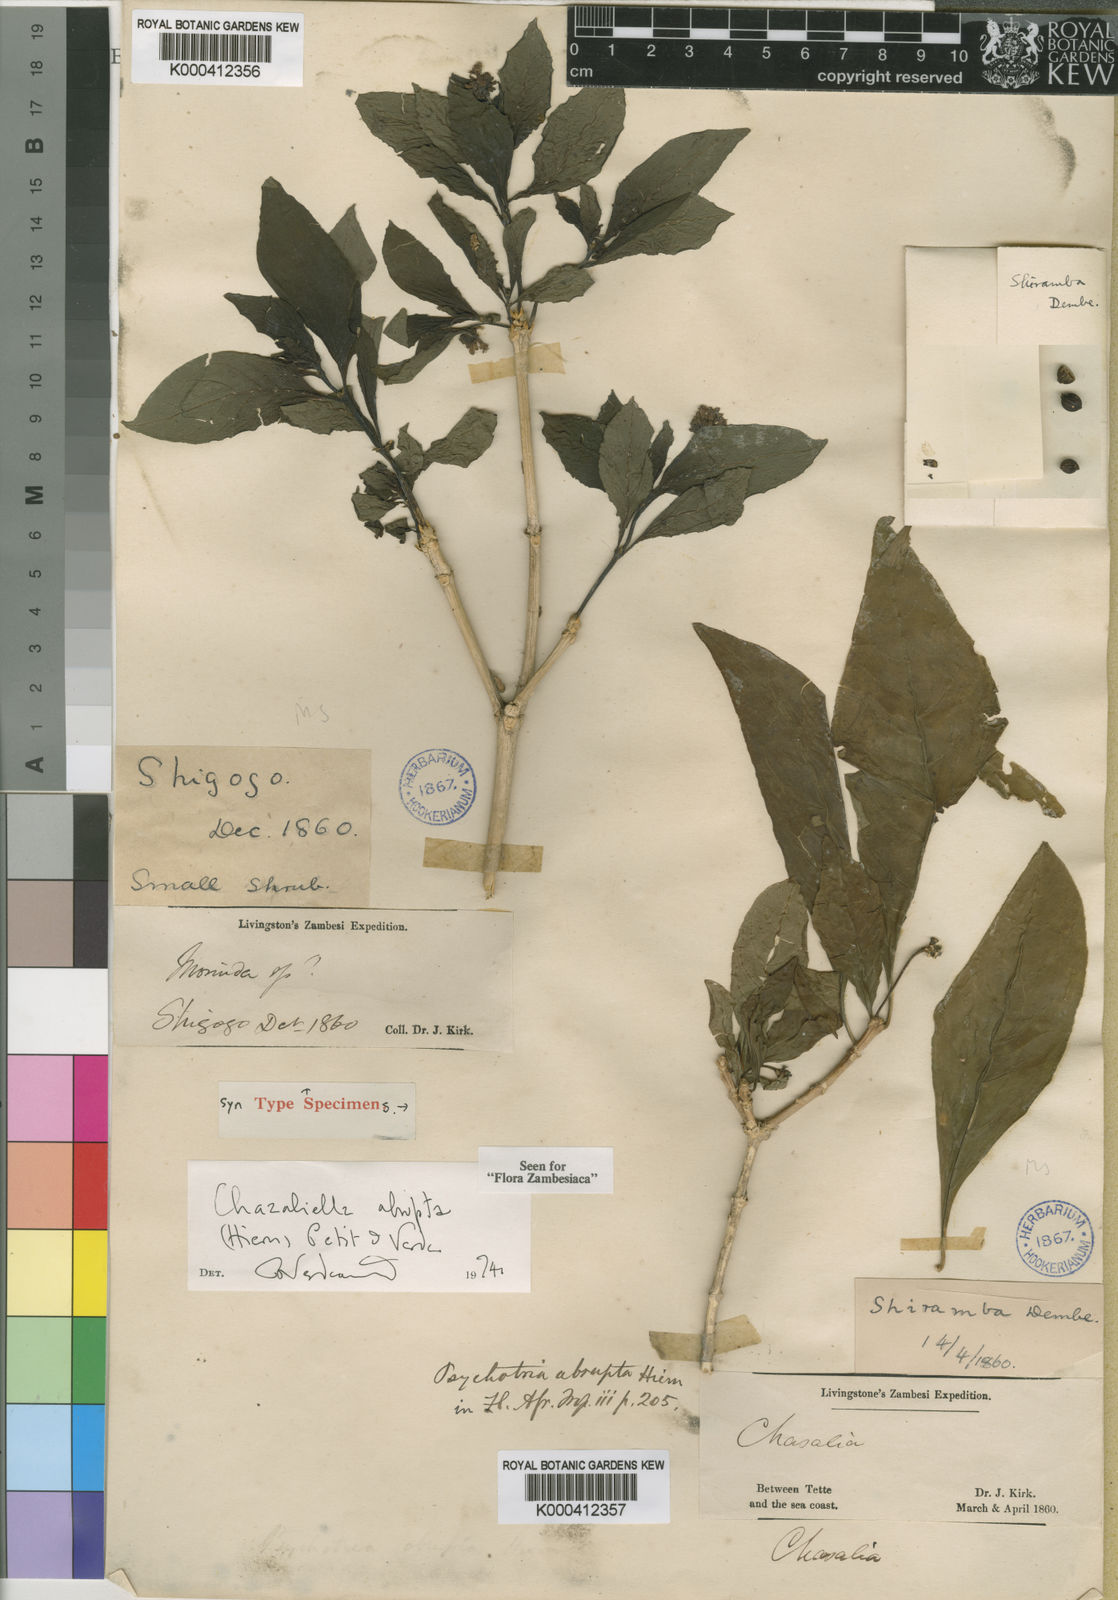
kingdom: Plantae
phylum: Tracheophyta
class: Magnoliopsida
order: Gentianales
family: Rubiaceae
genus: Eumachia
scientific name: Eumachia abrupta
